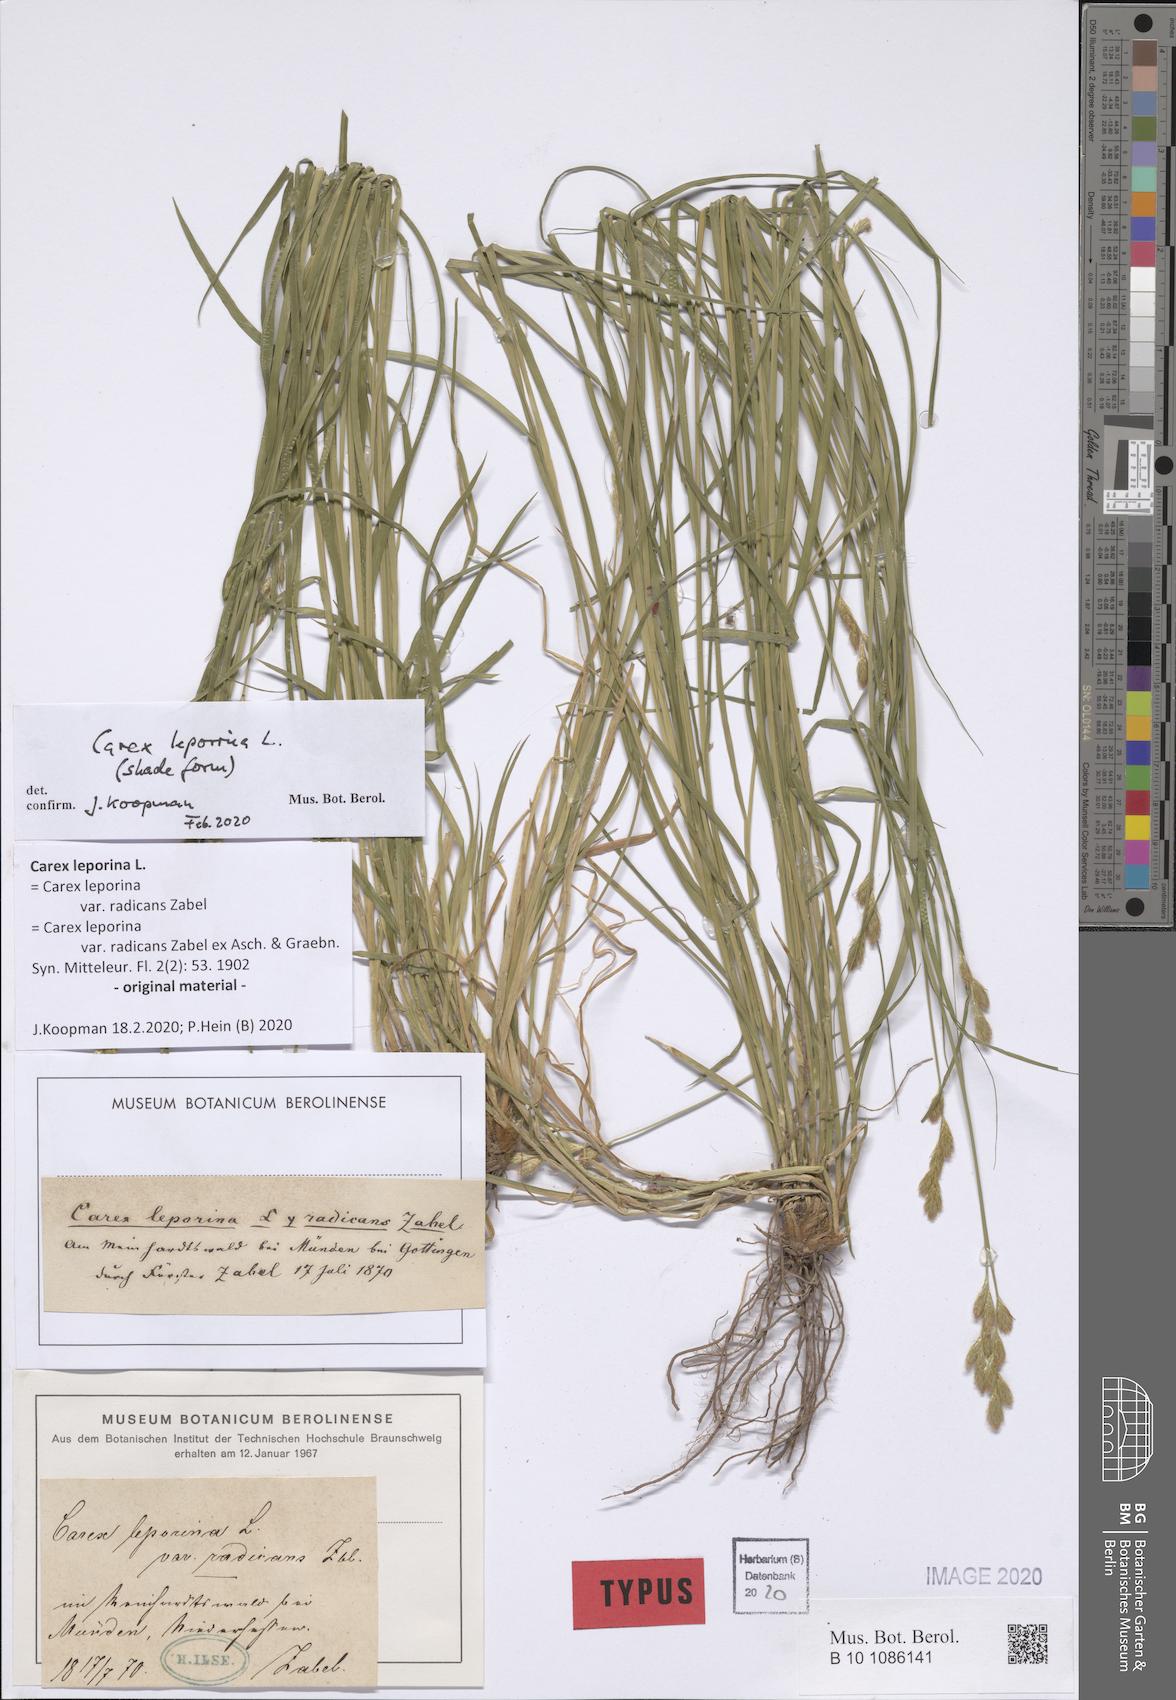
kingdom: Plantae
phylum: Tracheophyta
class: Liliopsida
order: Poales
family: Cyperaceae
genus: Carex
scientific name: Carex leporina
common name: Oval sedge
